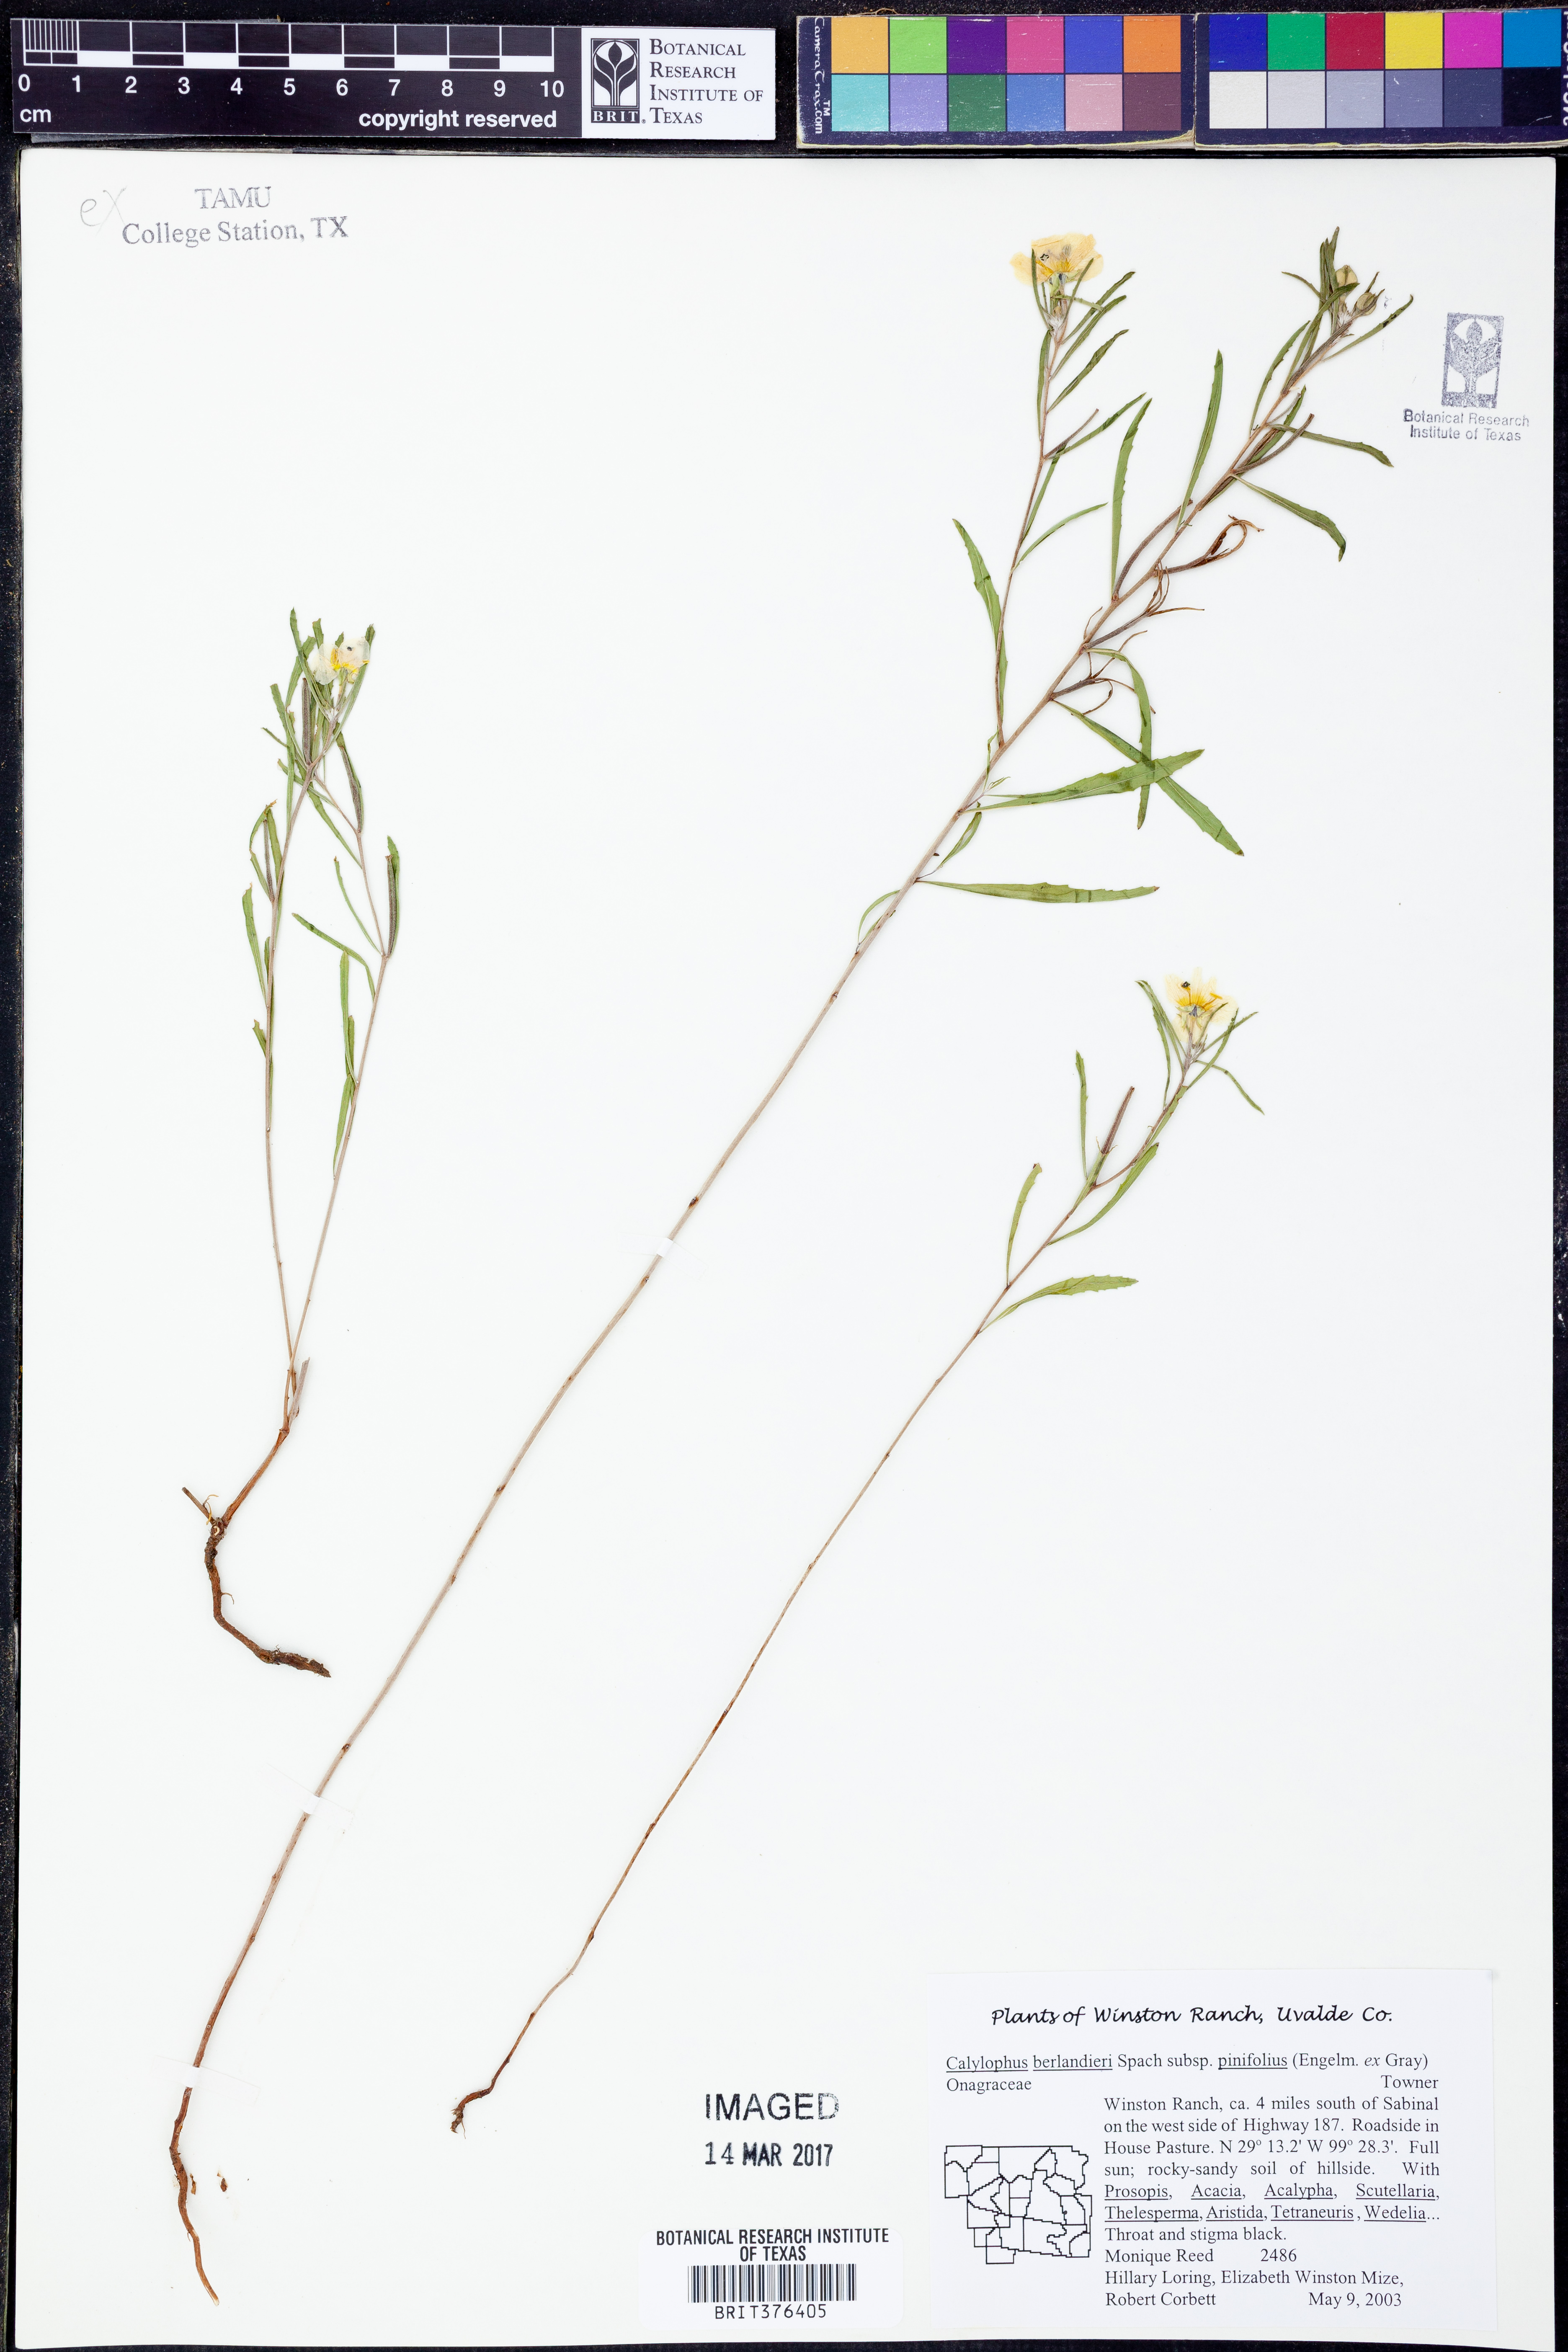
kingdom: Plantae
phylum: Tracheophyta
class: Magnoliopsida
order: Myrtales
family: Onagraceae
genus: Oenothera
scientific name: Oenothera capillifolia
